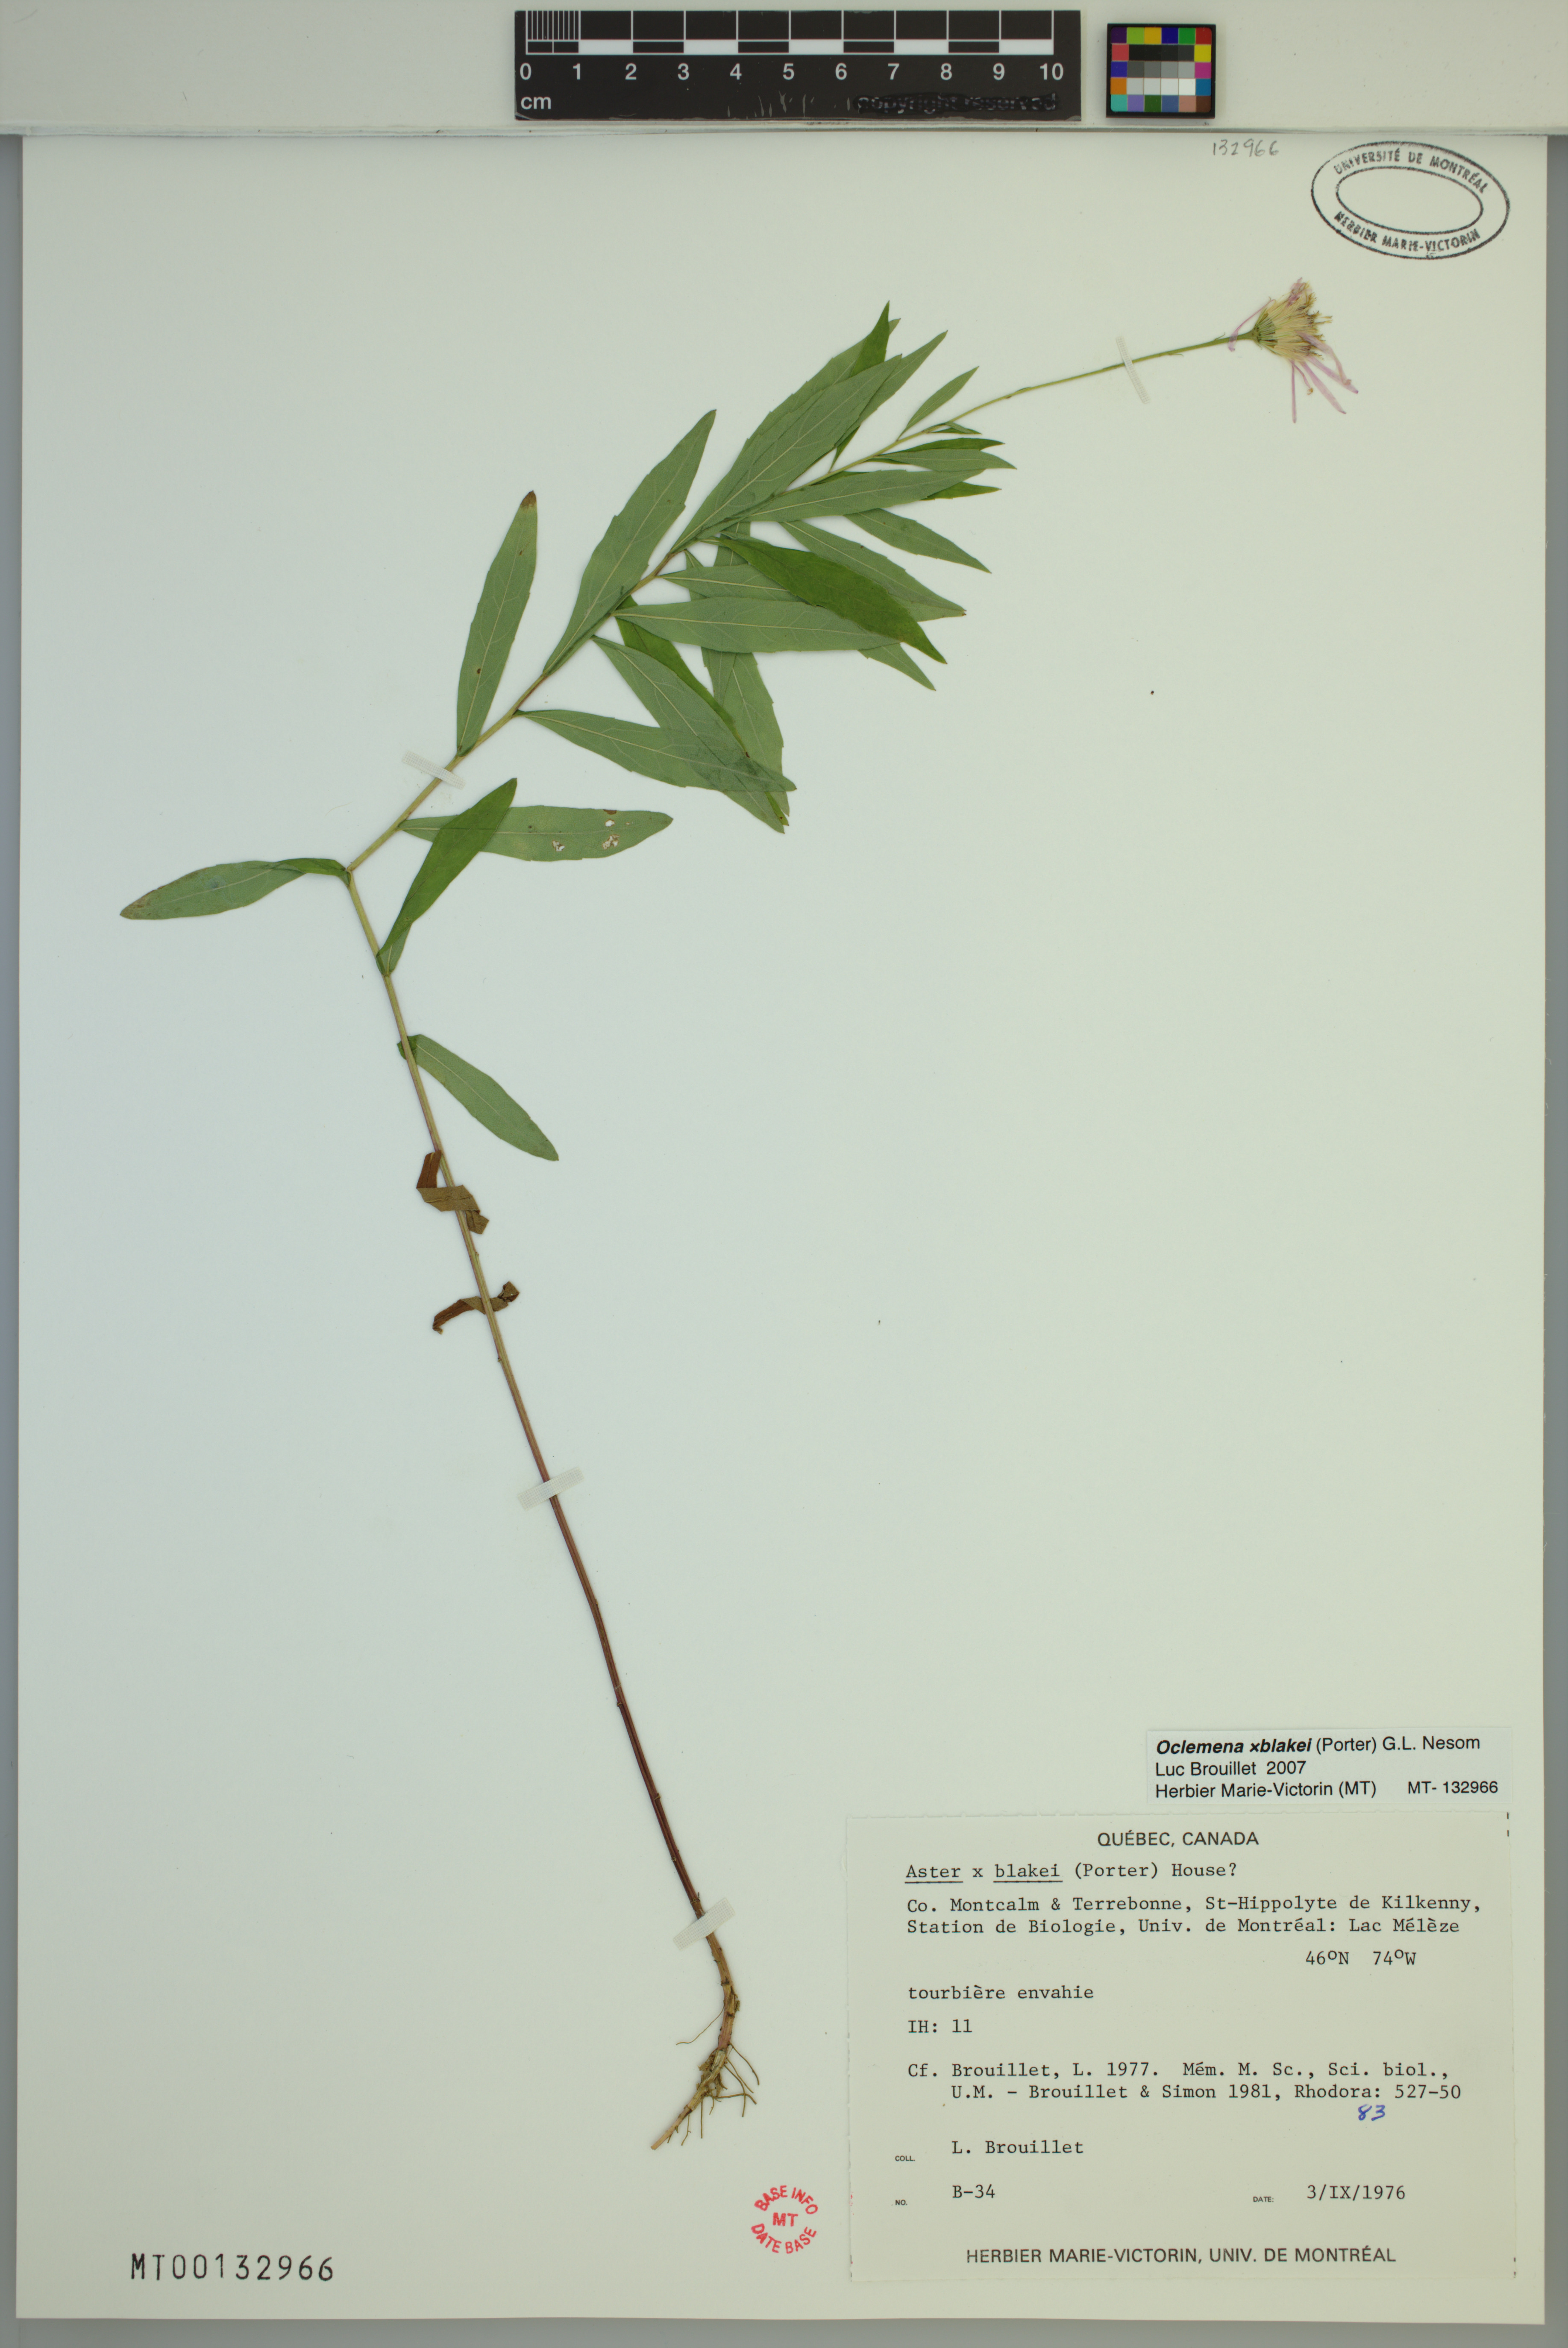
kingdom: Plantae
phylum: Tracheophyta
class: Magnoliopsida
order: Asterales
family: Asteraceae
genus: Oclemena
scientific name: Oclemena blakei
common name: Blake's aster
